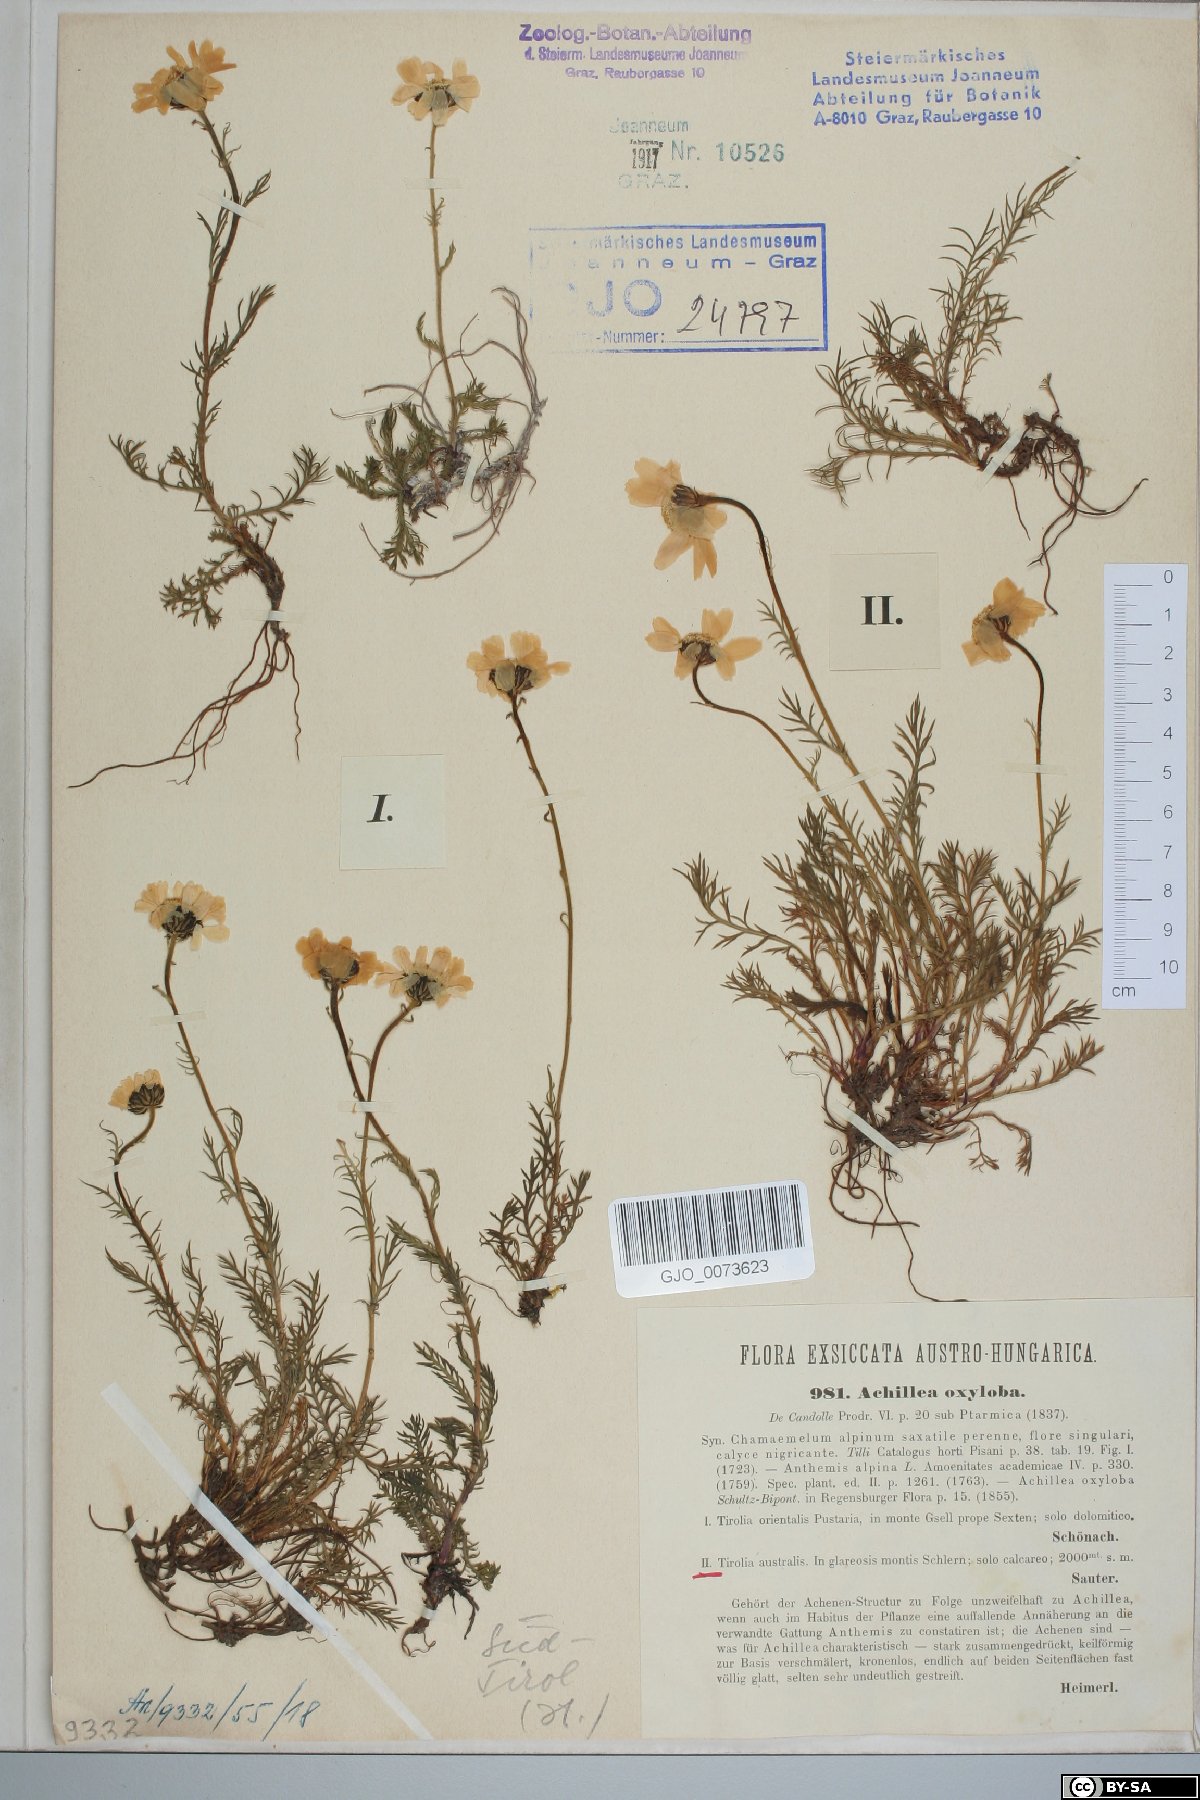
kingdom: Plantae
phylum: Tracheophyta
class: Magnoliopsida
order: Asterales
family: Asteraceae
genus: Achillea
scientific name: Achillea oxyloba
